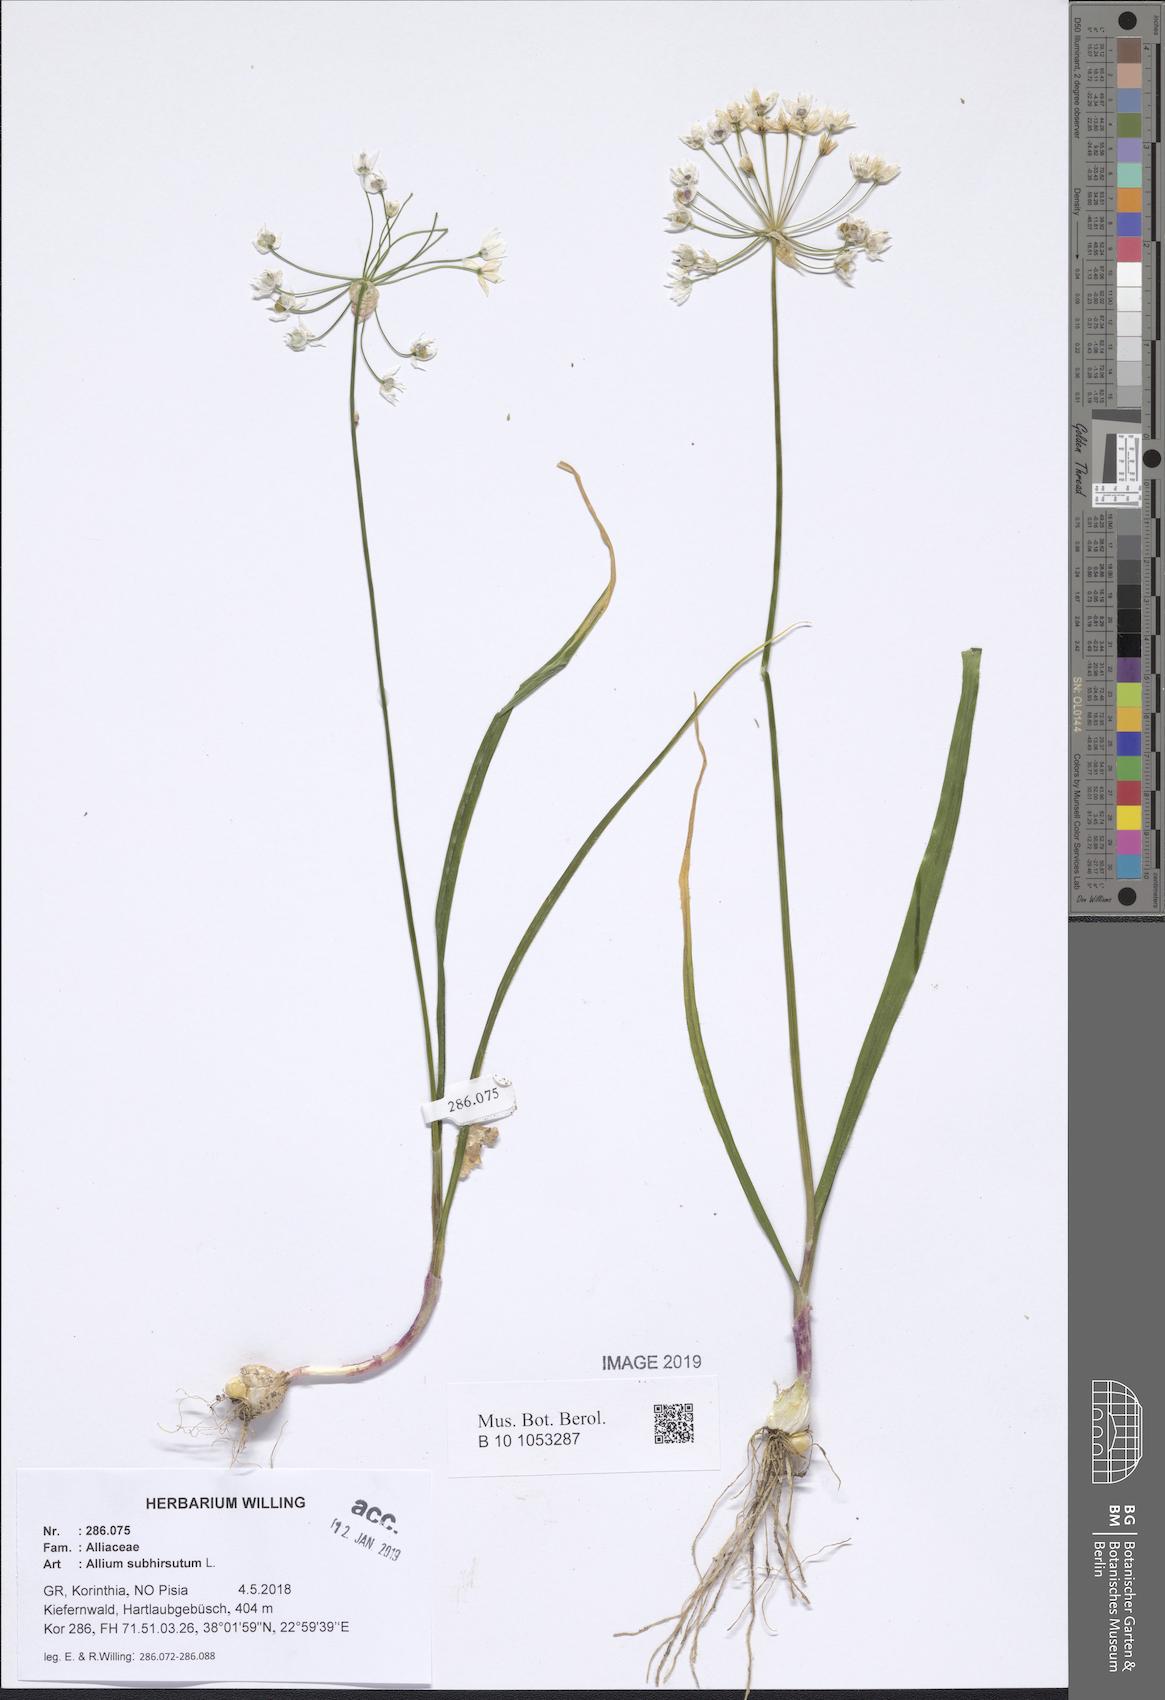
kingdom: Plantae
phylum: Tracheophyta
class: Liliopsida
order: Asparagales
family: Amaryllidaceae
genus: Allium
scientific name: Allium subhirsutum
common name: Hairy garlic
